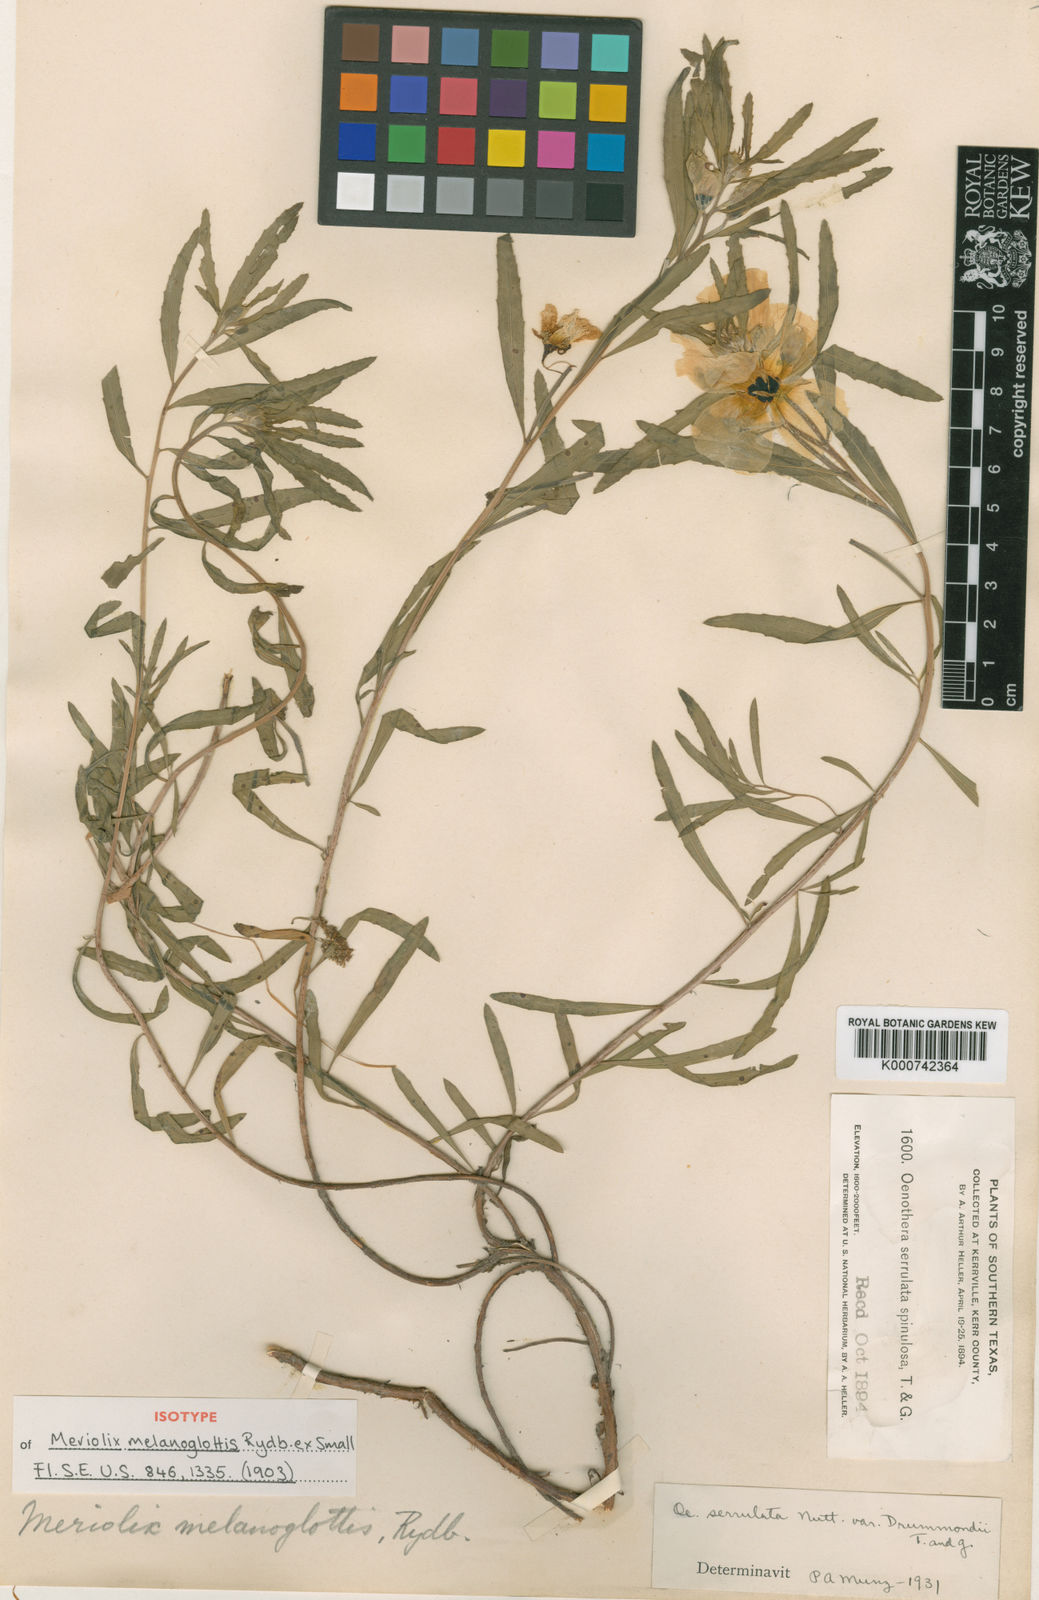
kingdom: Plantae
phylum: Tracheophyta
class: Magnoliopsida
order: Myrtales
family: Onagraceae
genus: Oenothera
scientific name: Oenothera capillifolia
